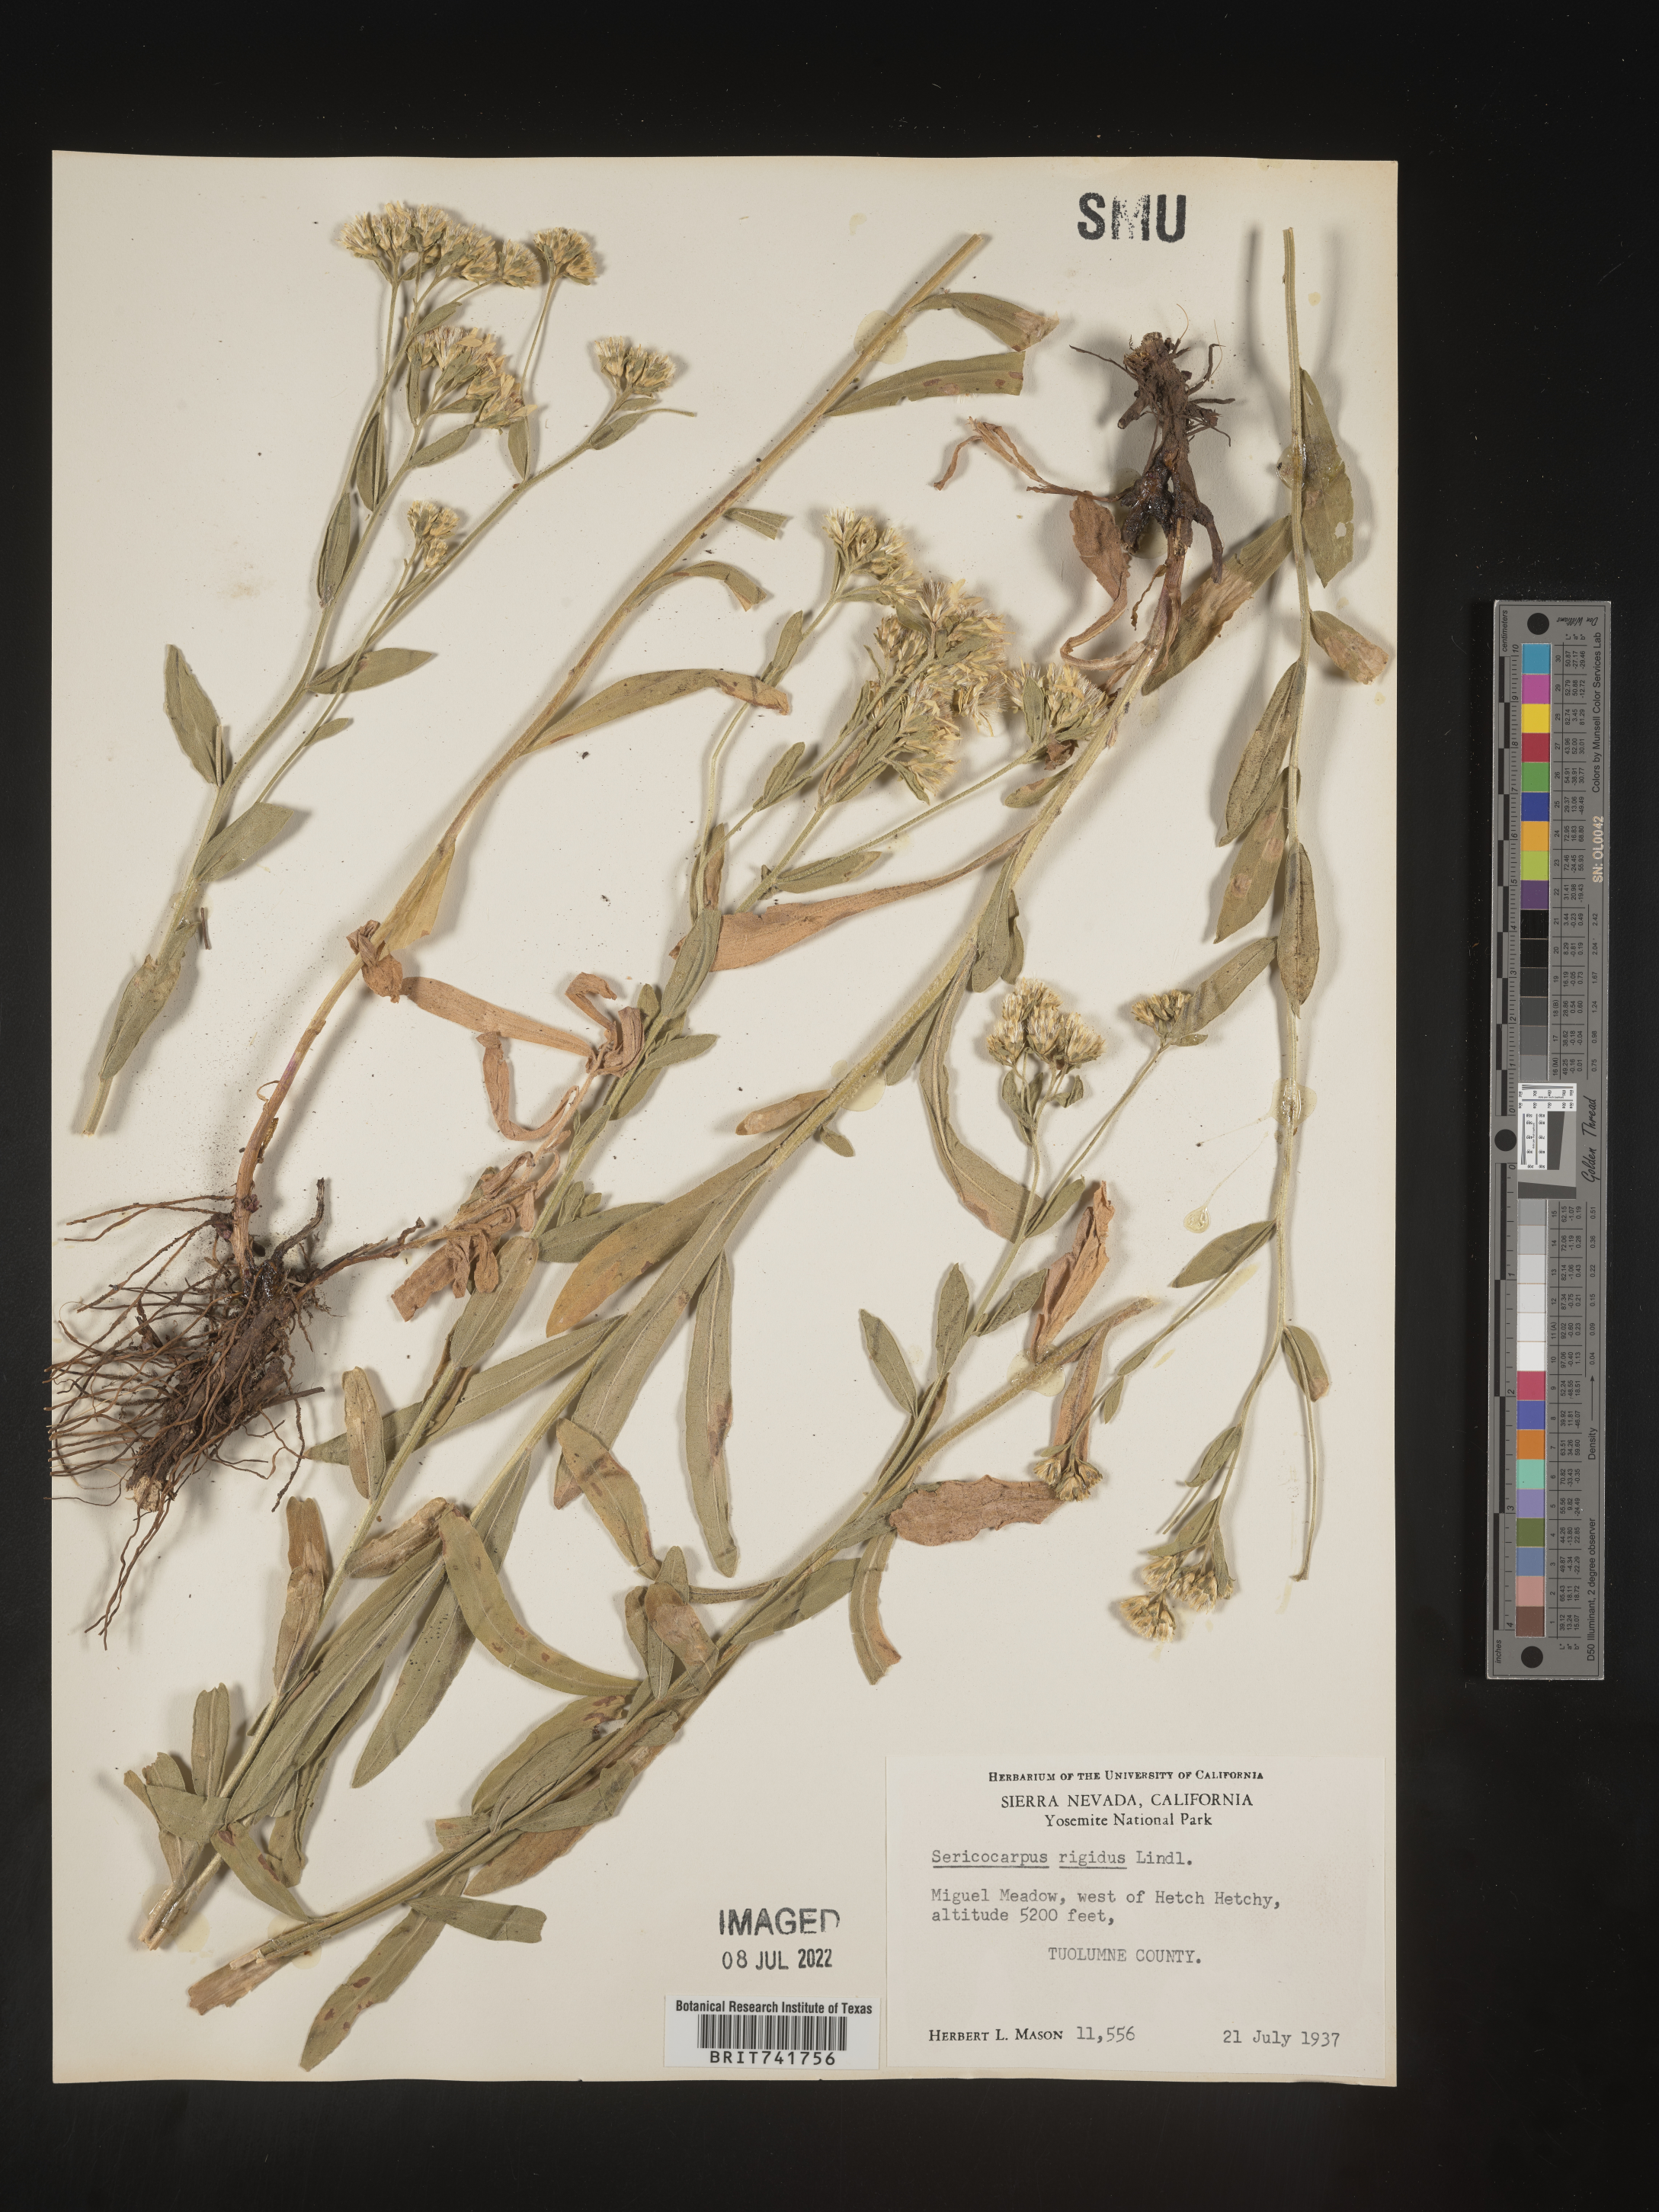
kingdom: Plantae
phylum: Tracheophyta
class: Magnoliopsida
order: Asterales
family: Asteraceae
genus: Sericocarpus
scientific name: Sericocarpus rigidus
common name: Columbia white-top aster
